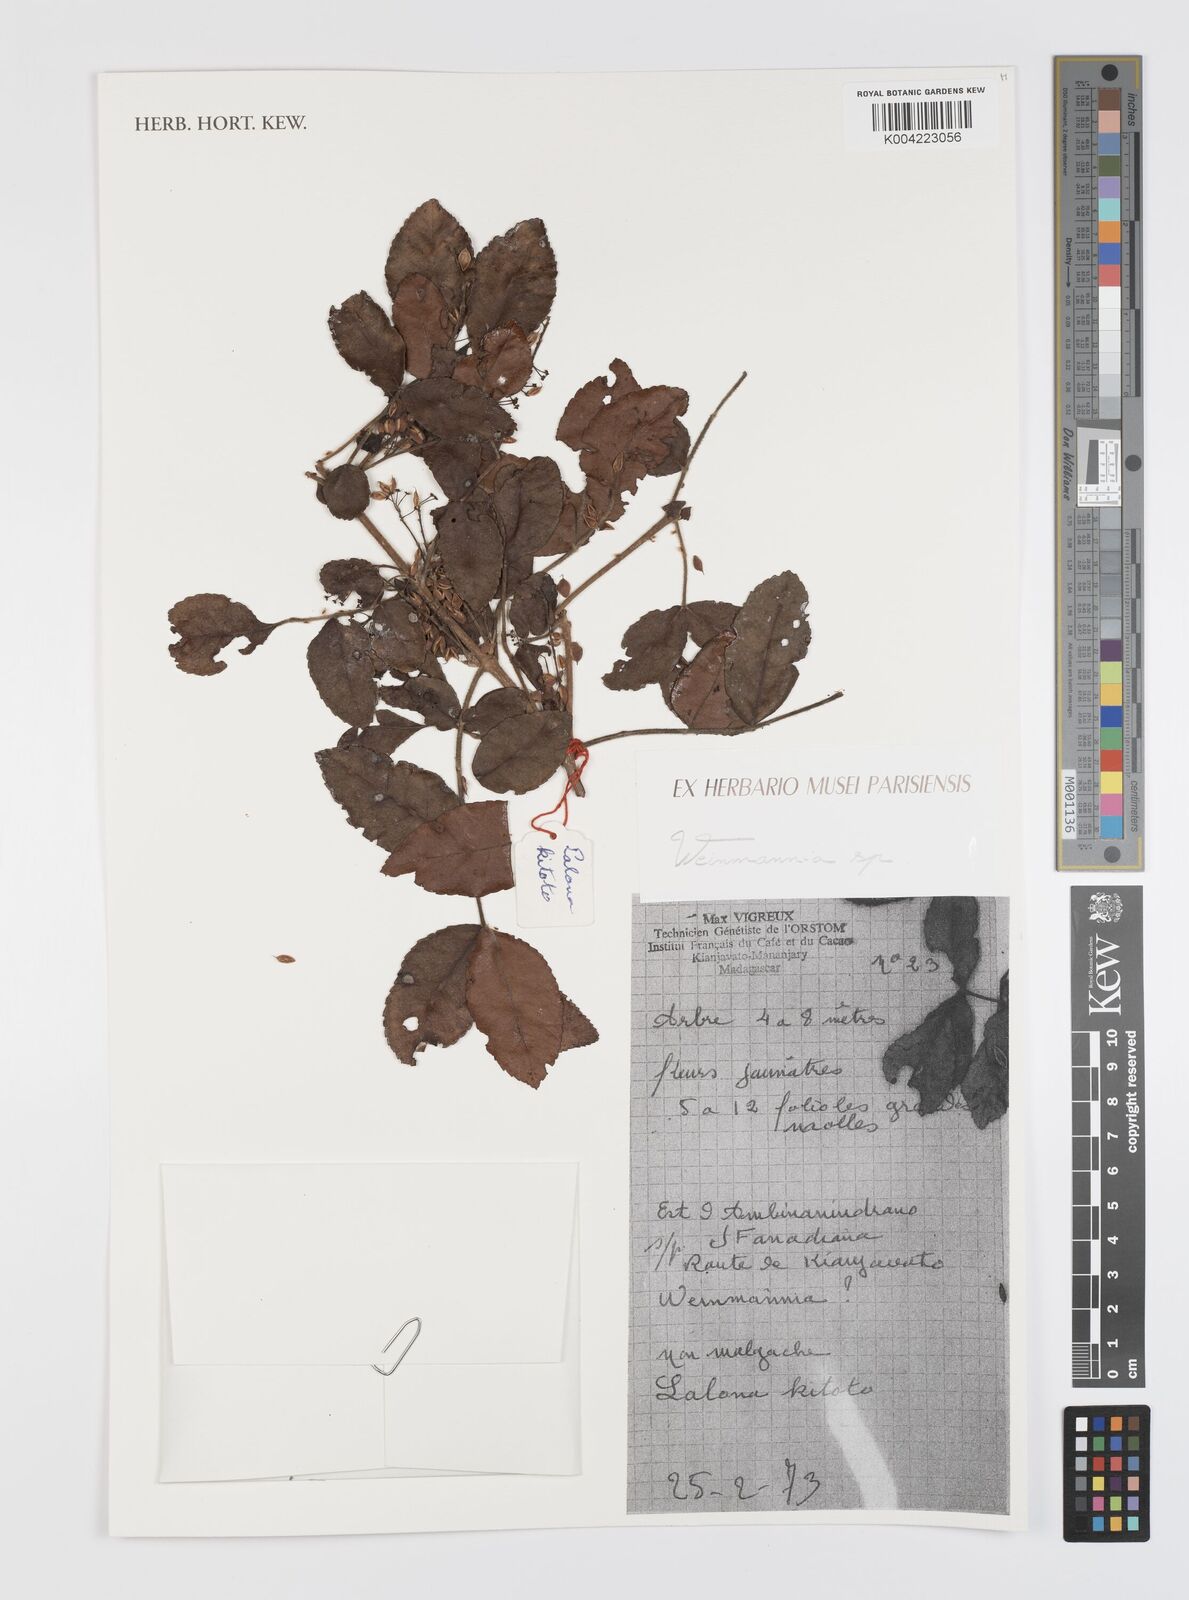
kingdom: Plantae
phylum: Tracheophyta
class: Magnoliopsida
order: Oxalidales
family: Cunoniaceae
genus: Weinmannia
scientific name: Weinmannia
